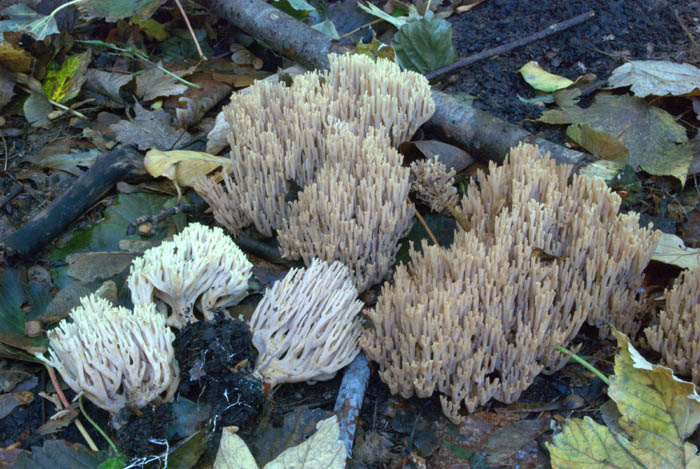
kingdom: Fungi
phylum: Basidiomycota
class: Agaricomycetes
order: Gomphales
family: Gomphaceae
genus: Ramaria
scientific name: Ramaria stricta
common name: rank koralsvamp
